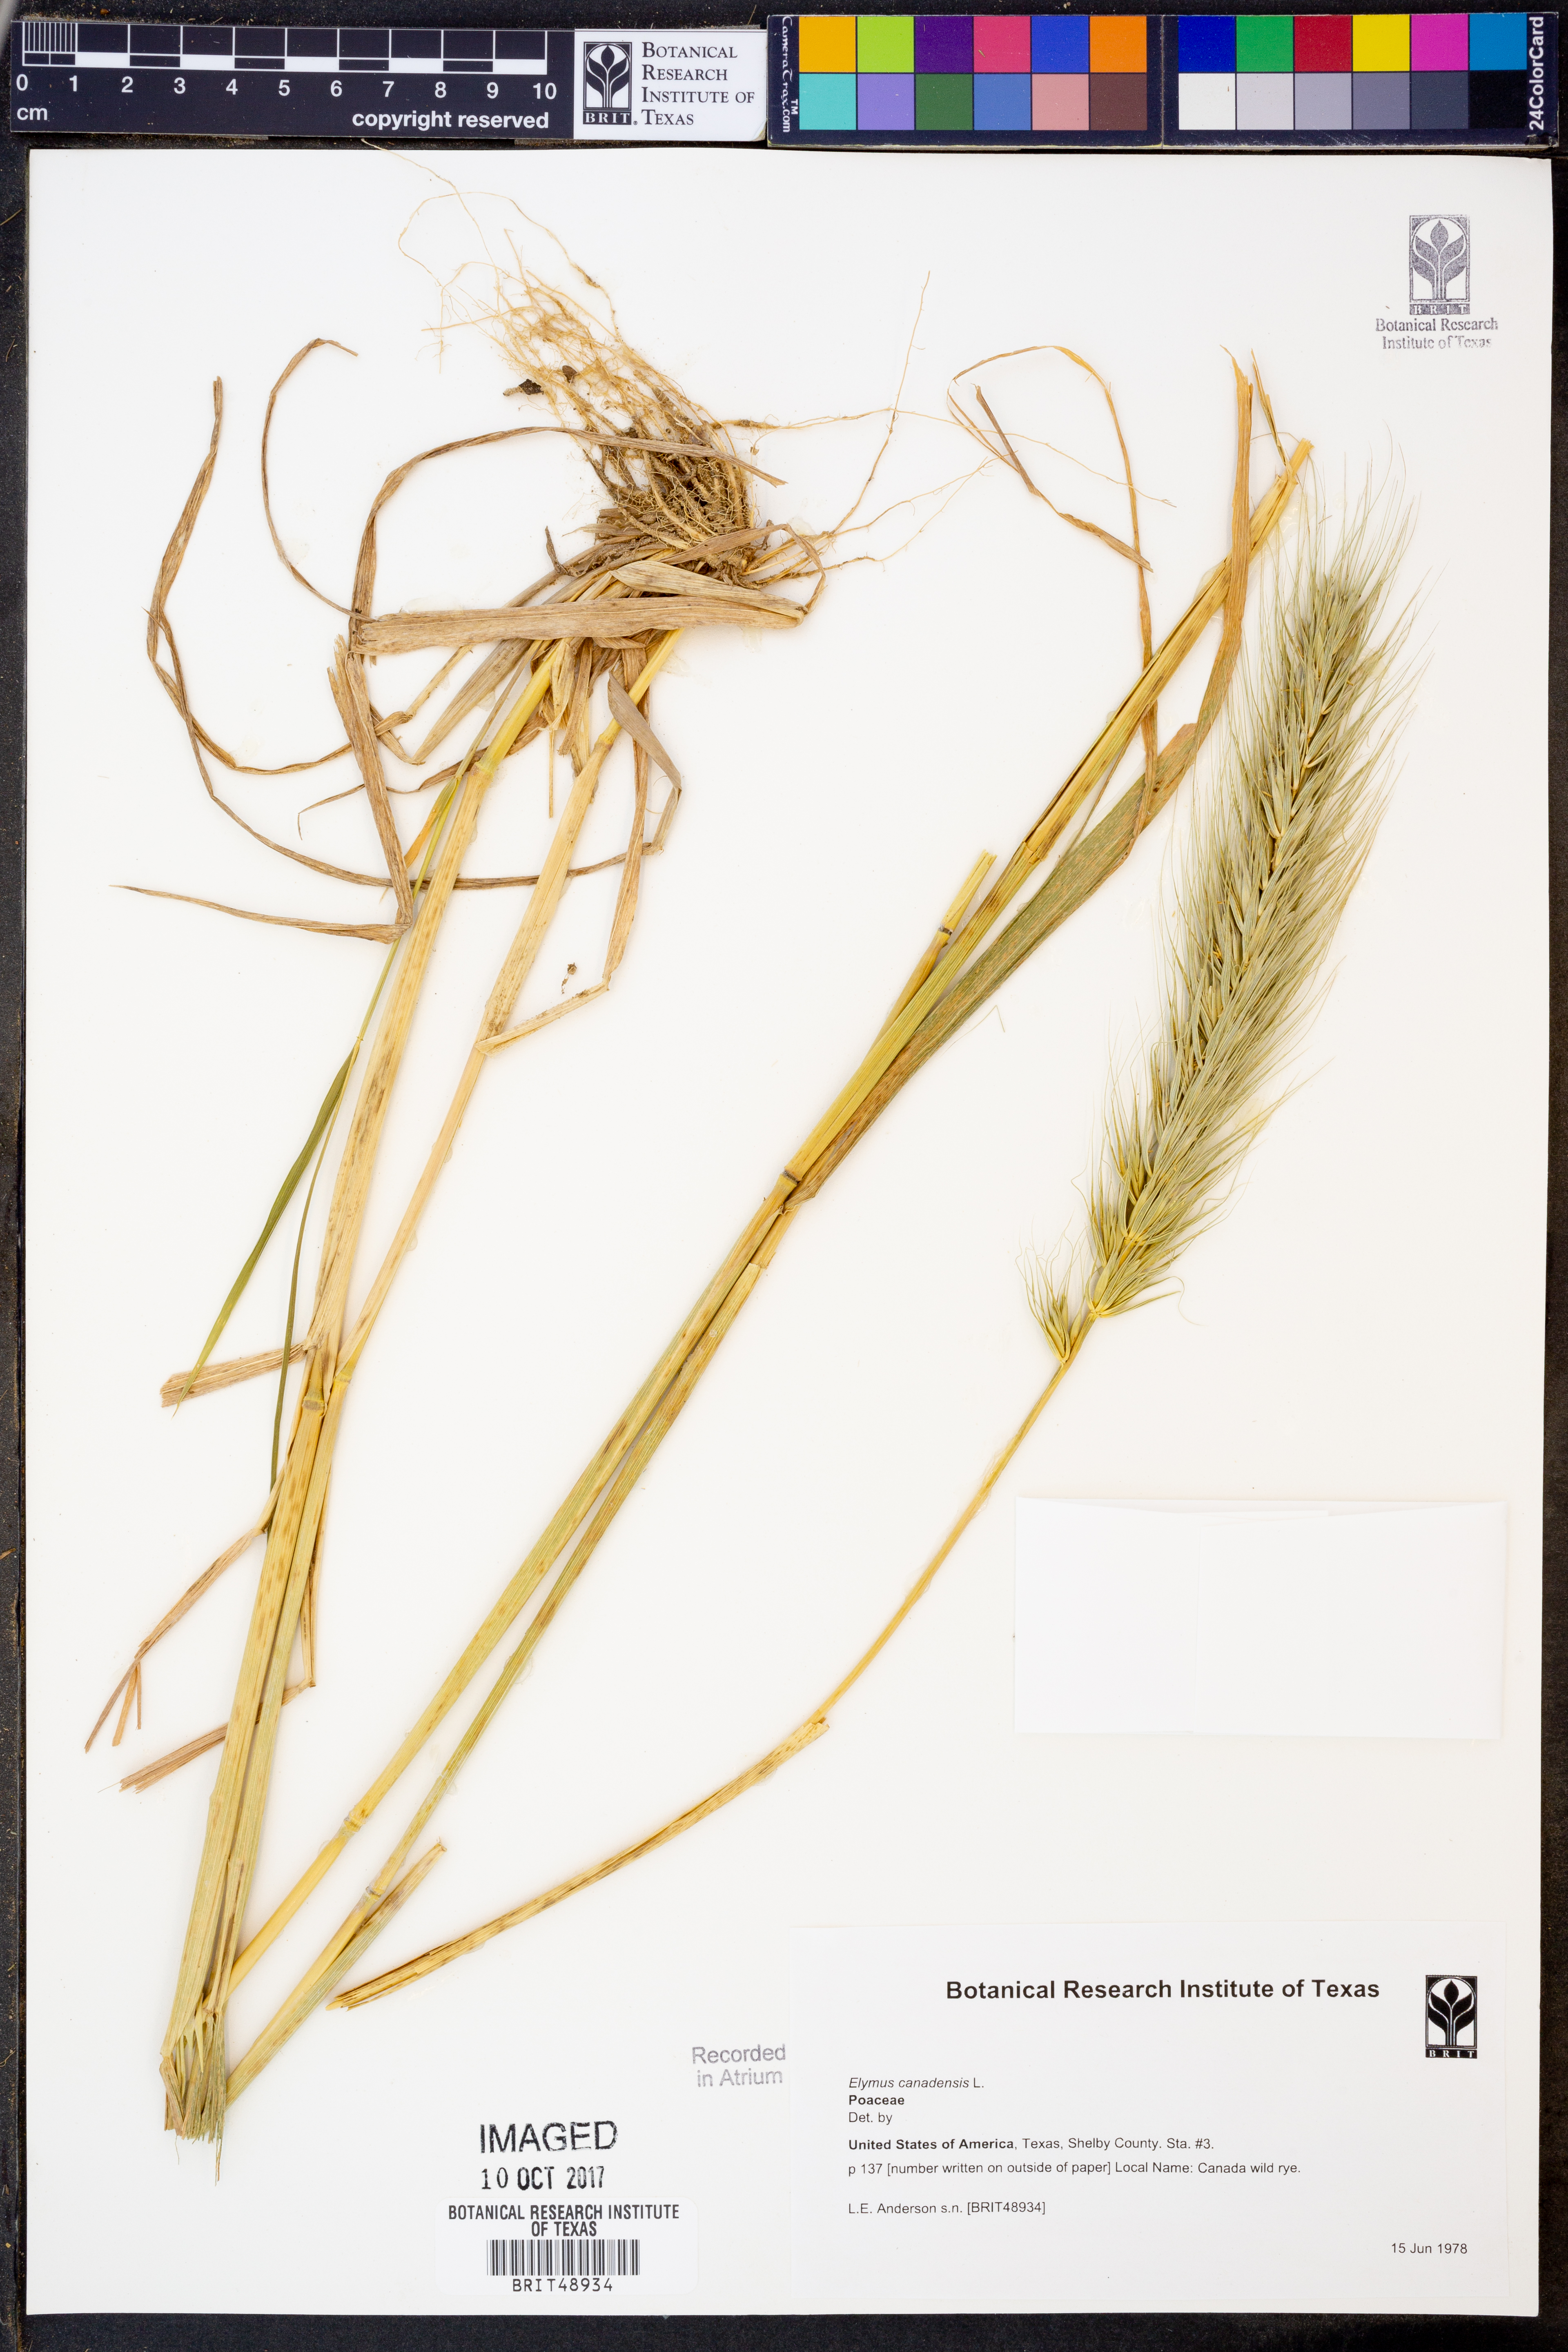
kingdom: Plantae
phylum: Tracheophyta
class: Liliopsida
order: Poales
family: Poaceae
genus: Elymus
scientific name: Elymus canadensis
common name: Canada wild rye
